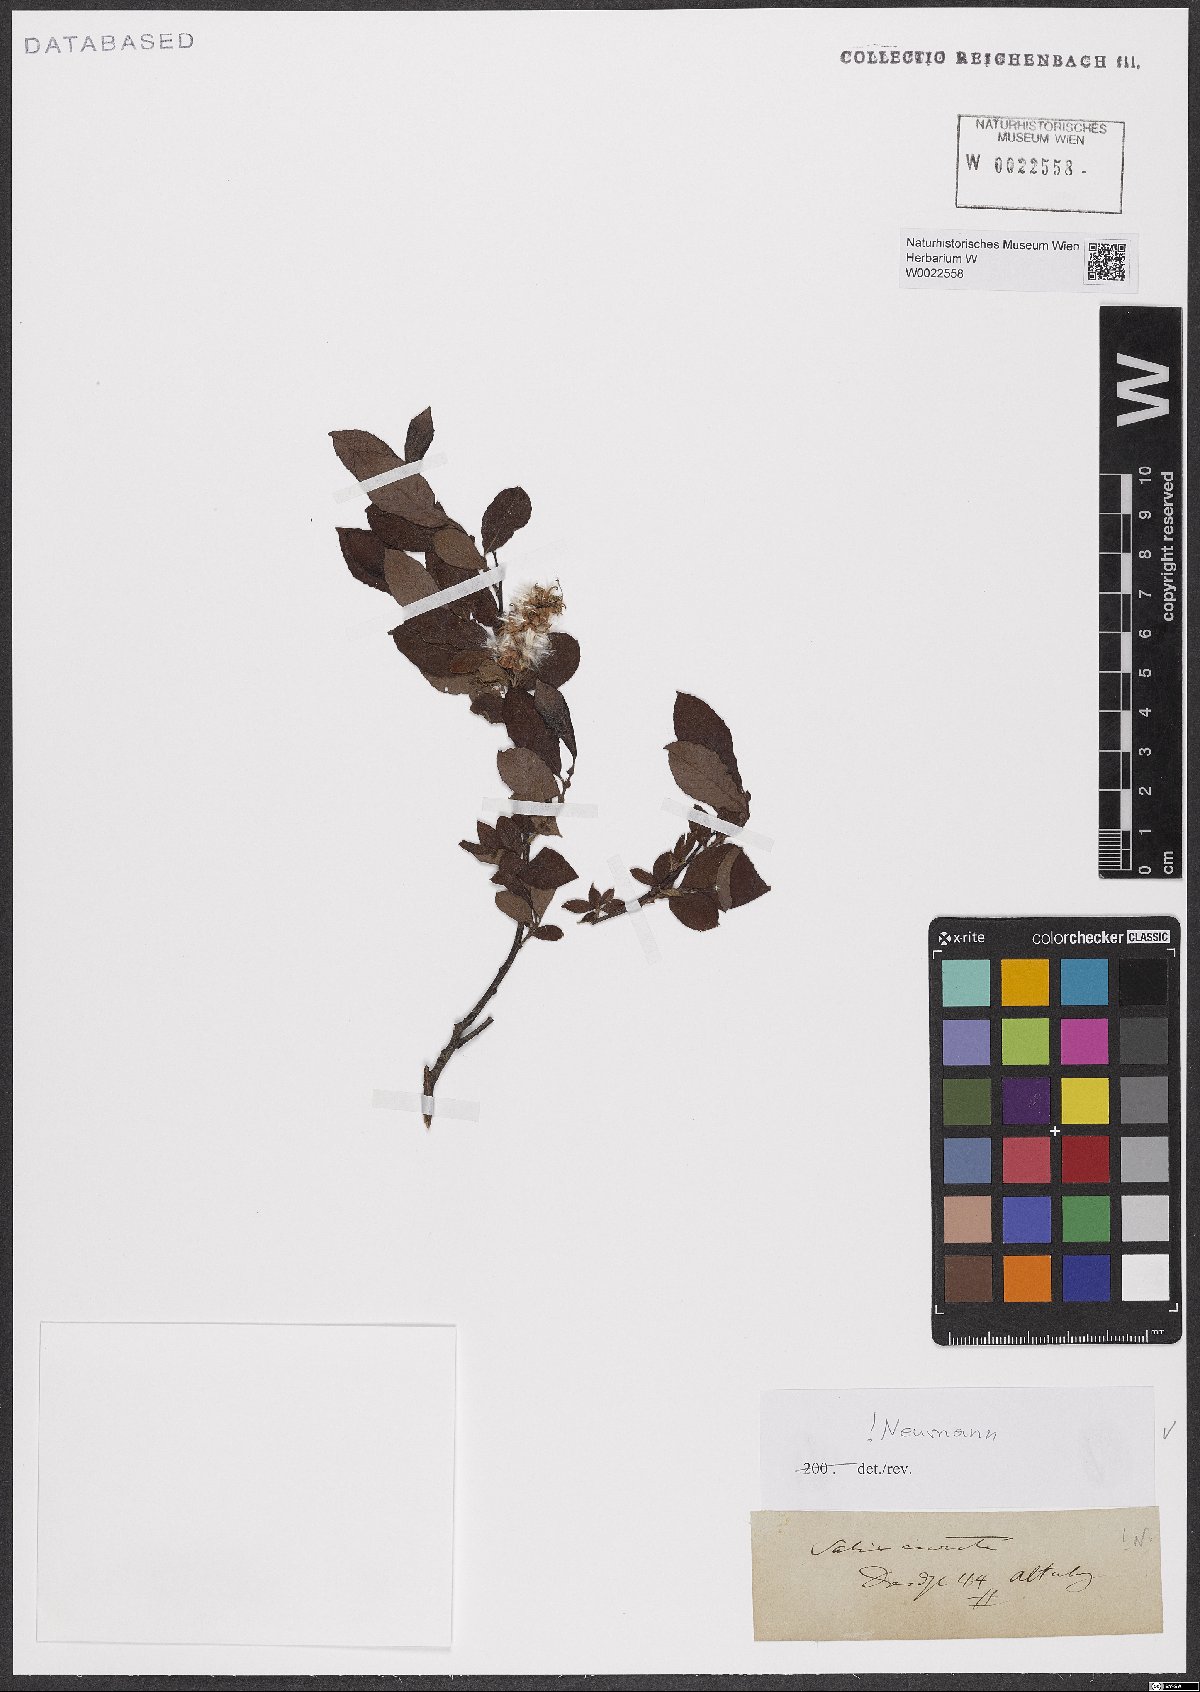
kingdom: Plantae
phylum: Tracheophyta
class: Magnoliopsida
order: Malpighiales
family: Salicaceae
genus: Salix
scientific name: Salix aurita
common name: Eared willow
